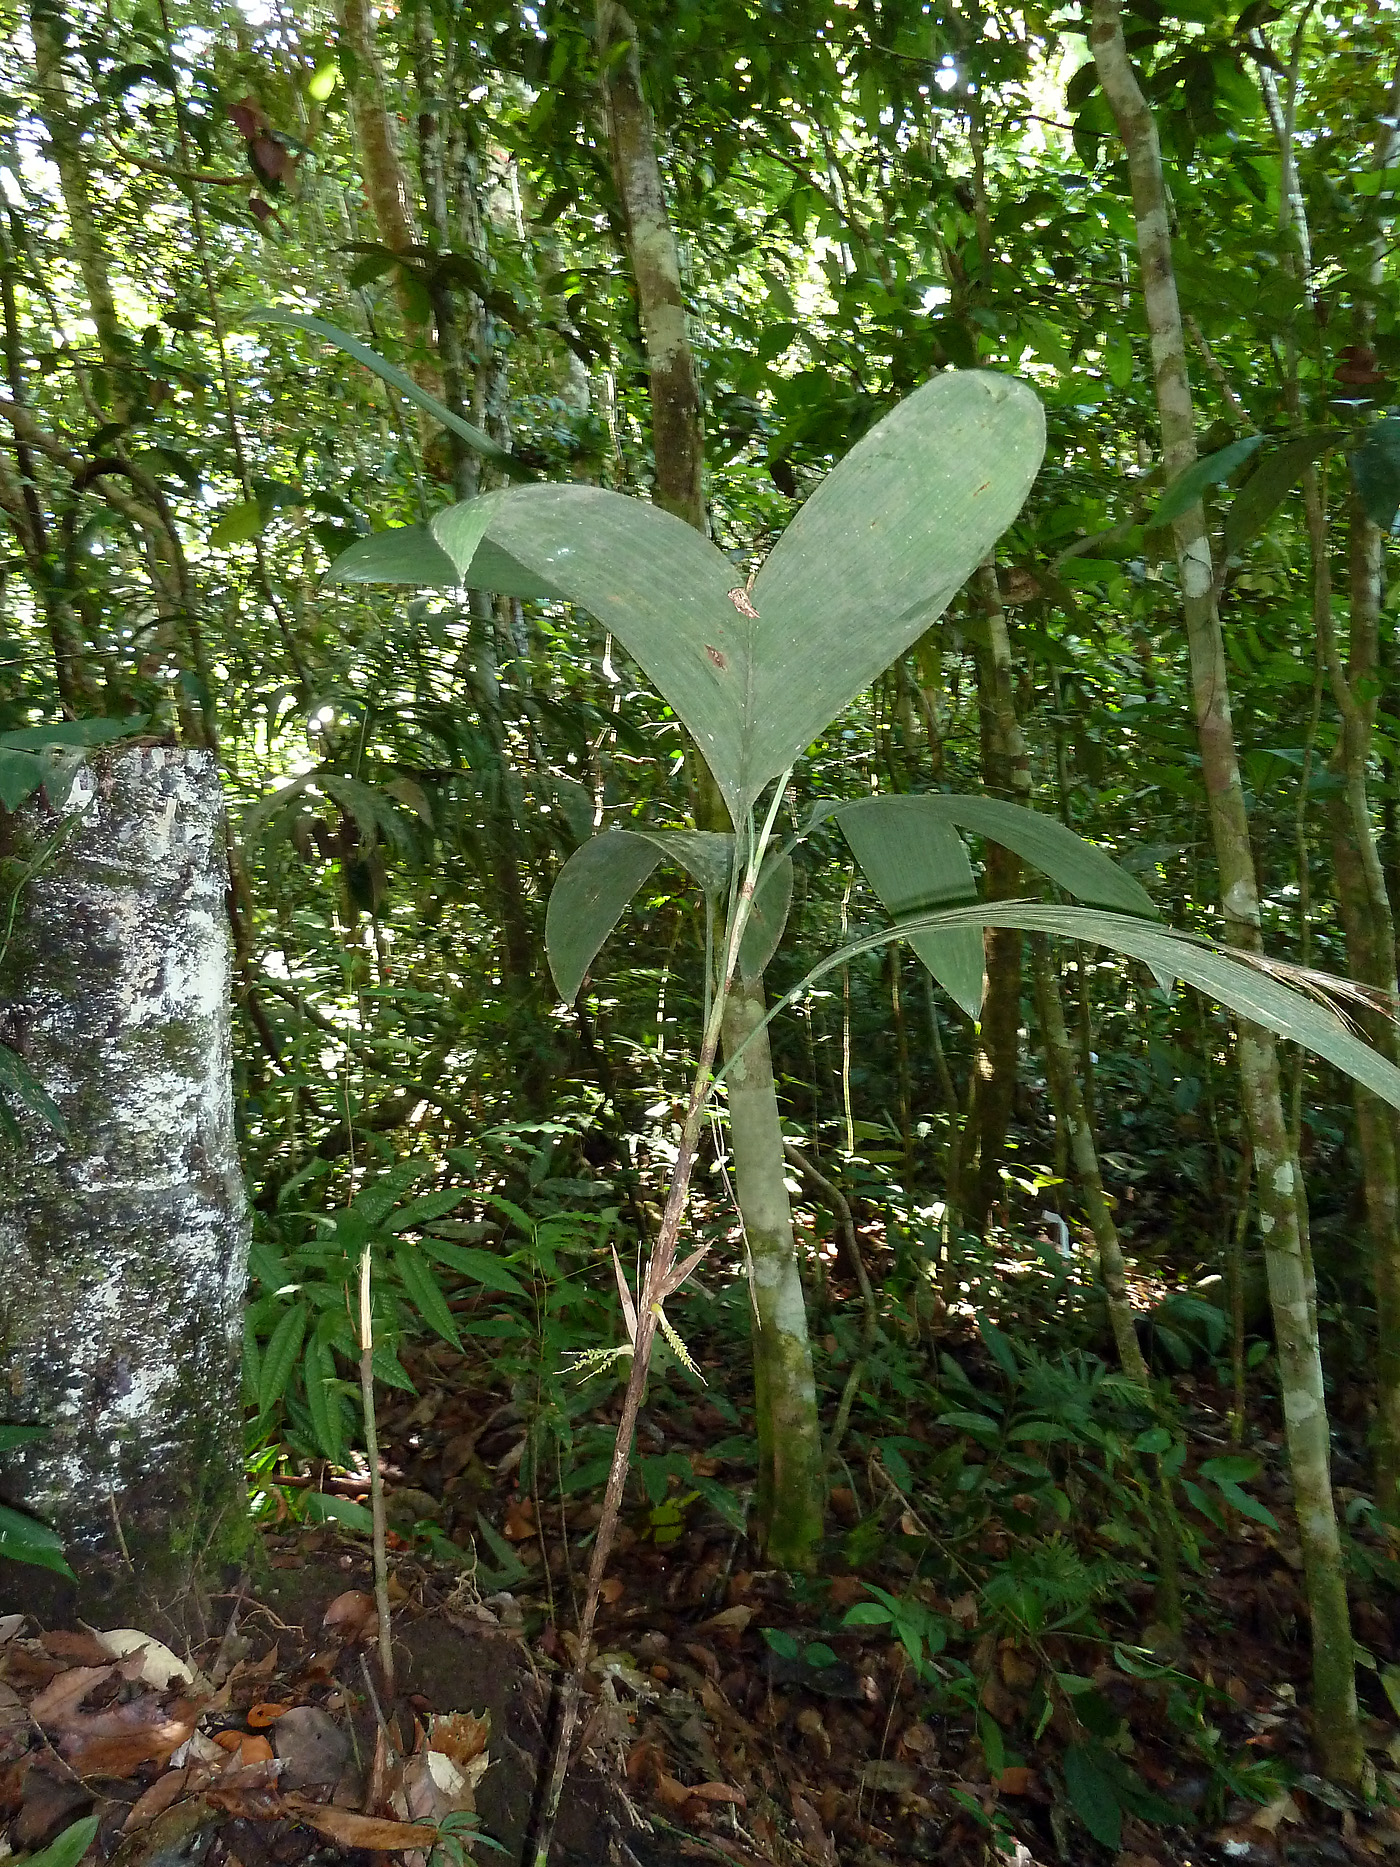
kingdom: Plantae
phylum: Tracheophyta
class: Liliopsida
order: Arecales
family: Arecaceae
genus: Bactris
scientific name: Bactris schultesii
